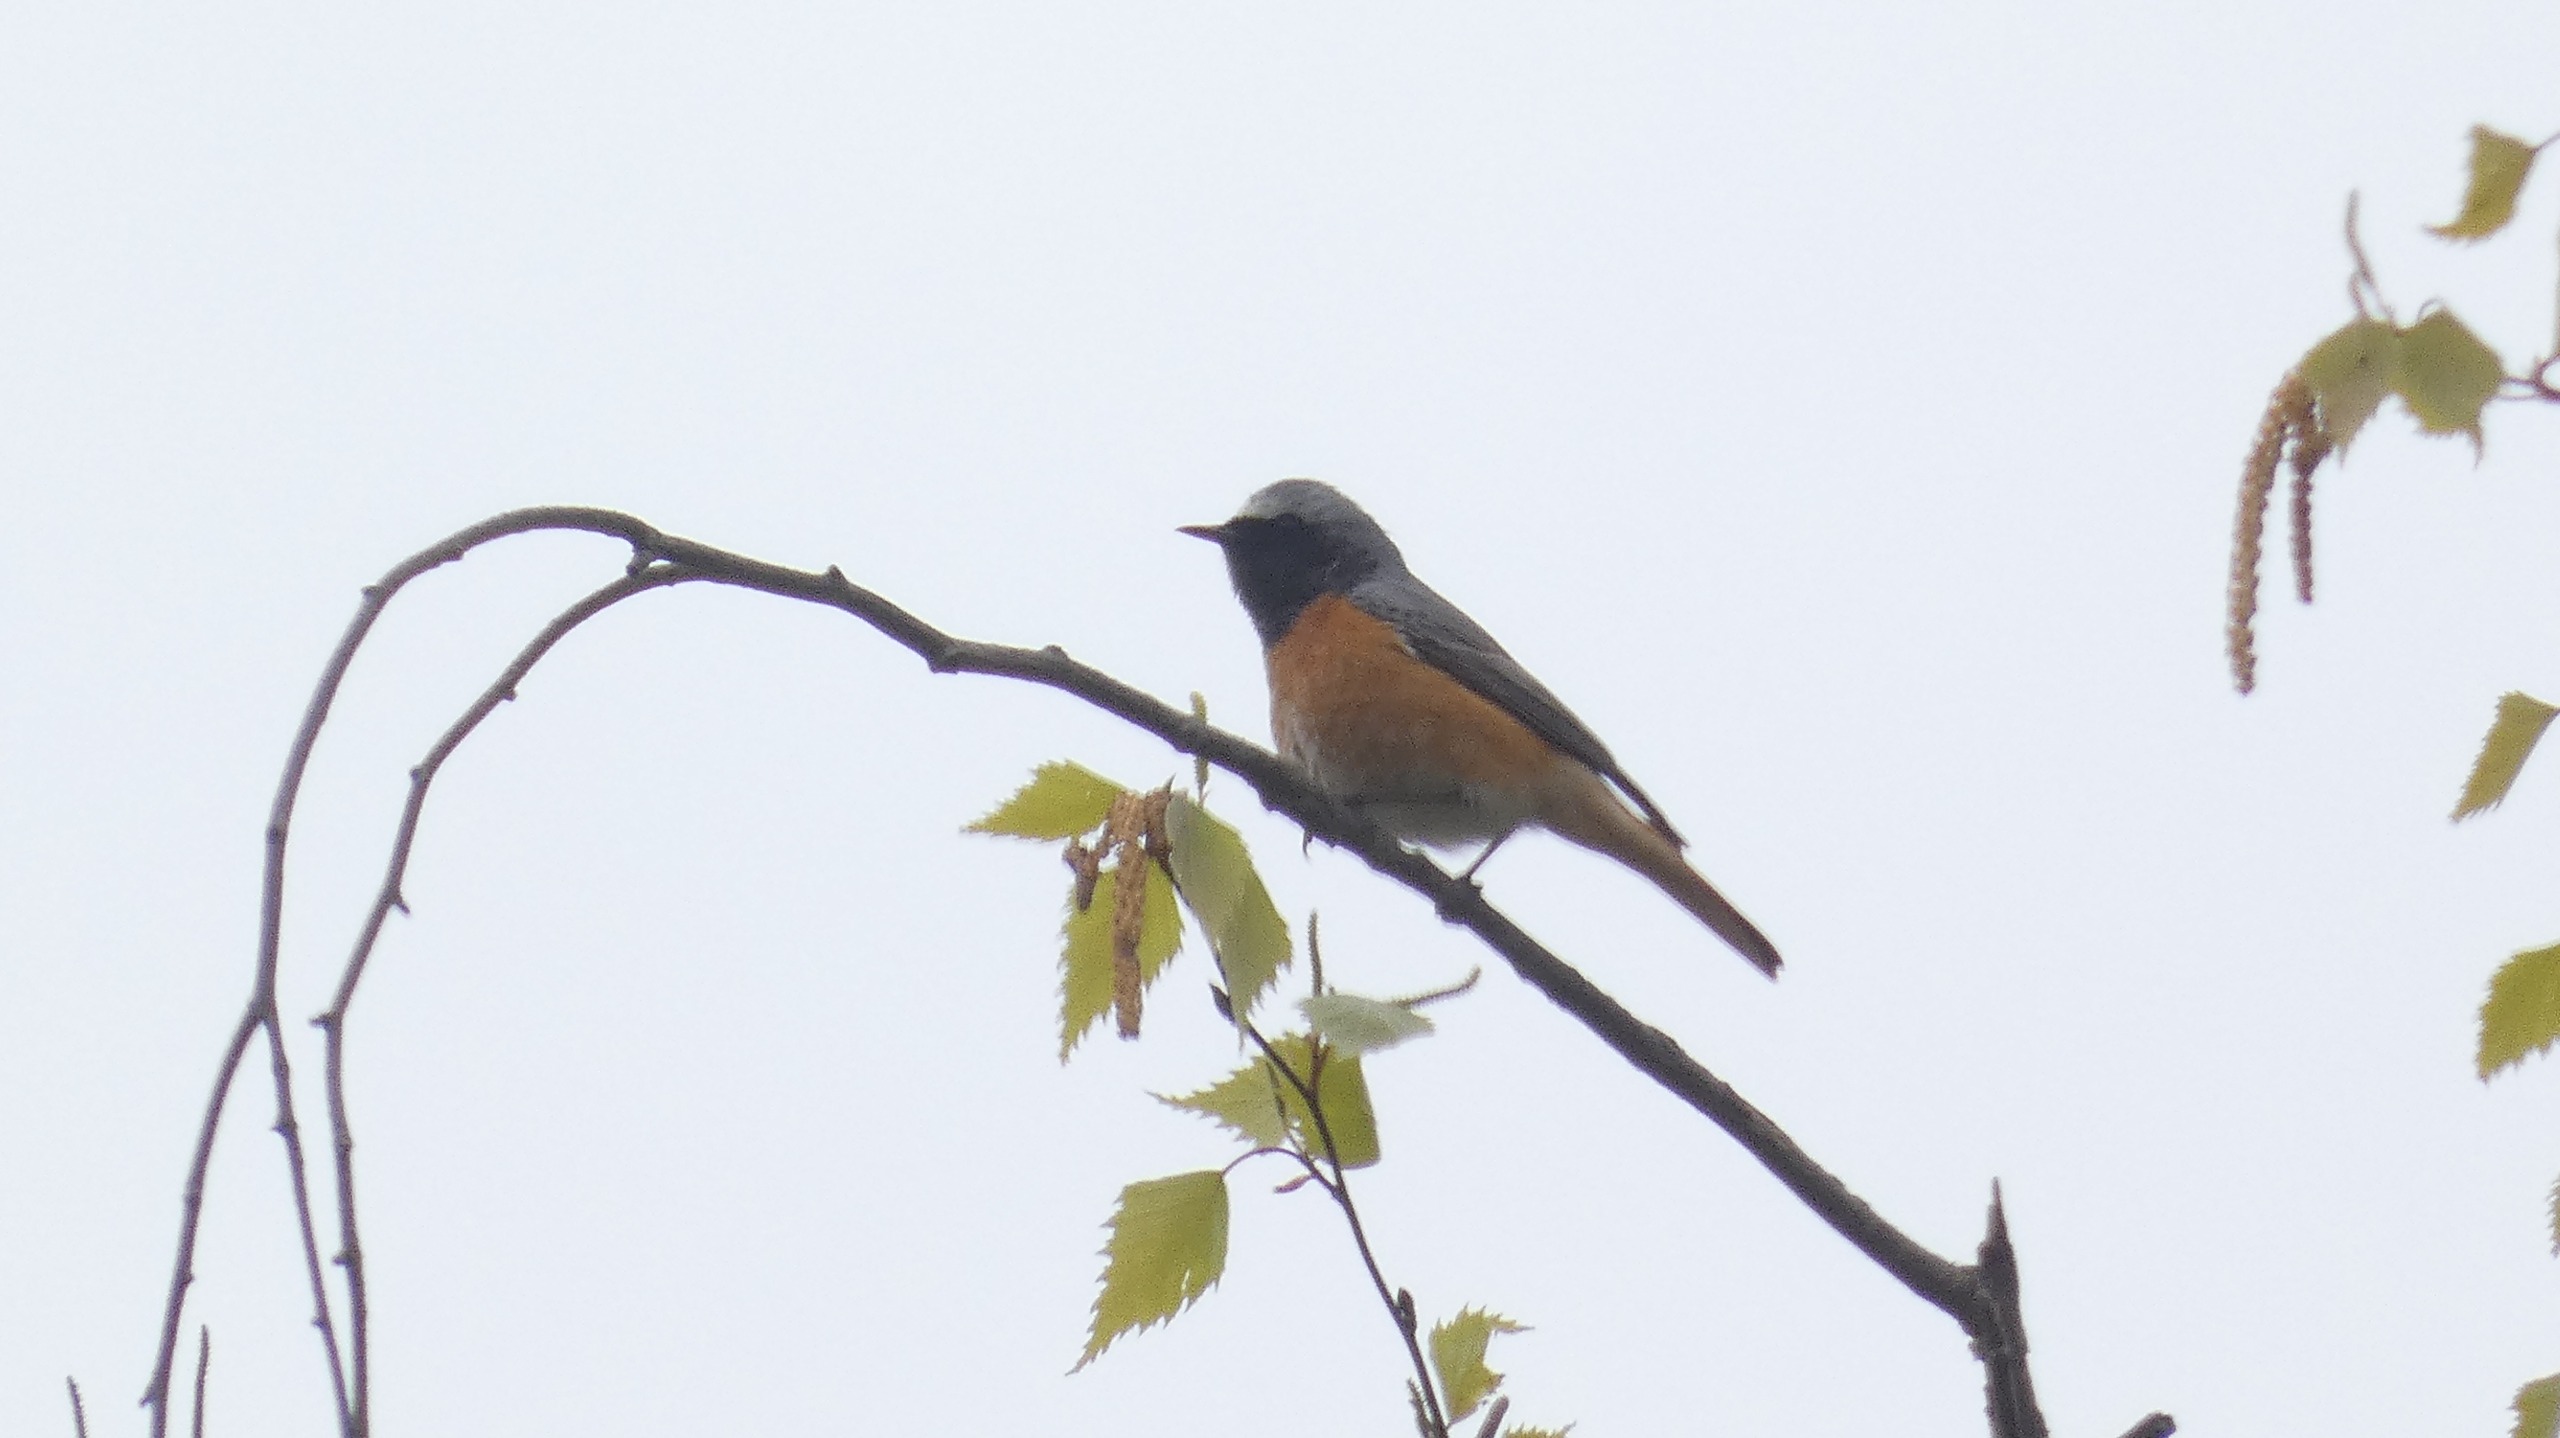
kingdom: Animalia
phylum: Chordata
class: Aves
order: Passeriformes
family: Muscicapidae
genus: Phoenicurus
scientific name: Phoenicurus phoenicurus
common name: Rødstjert
